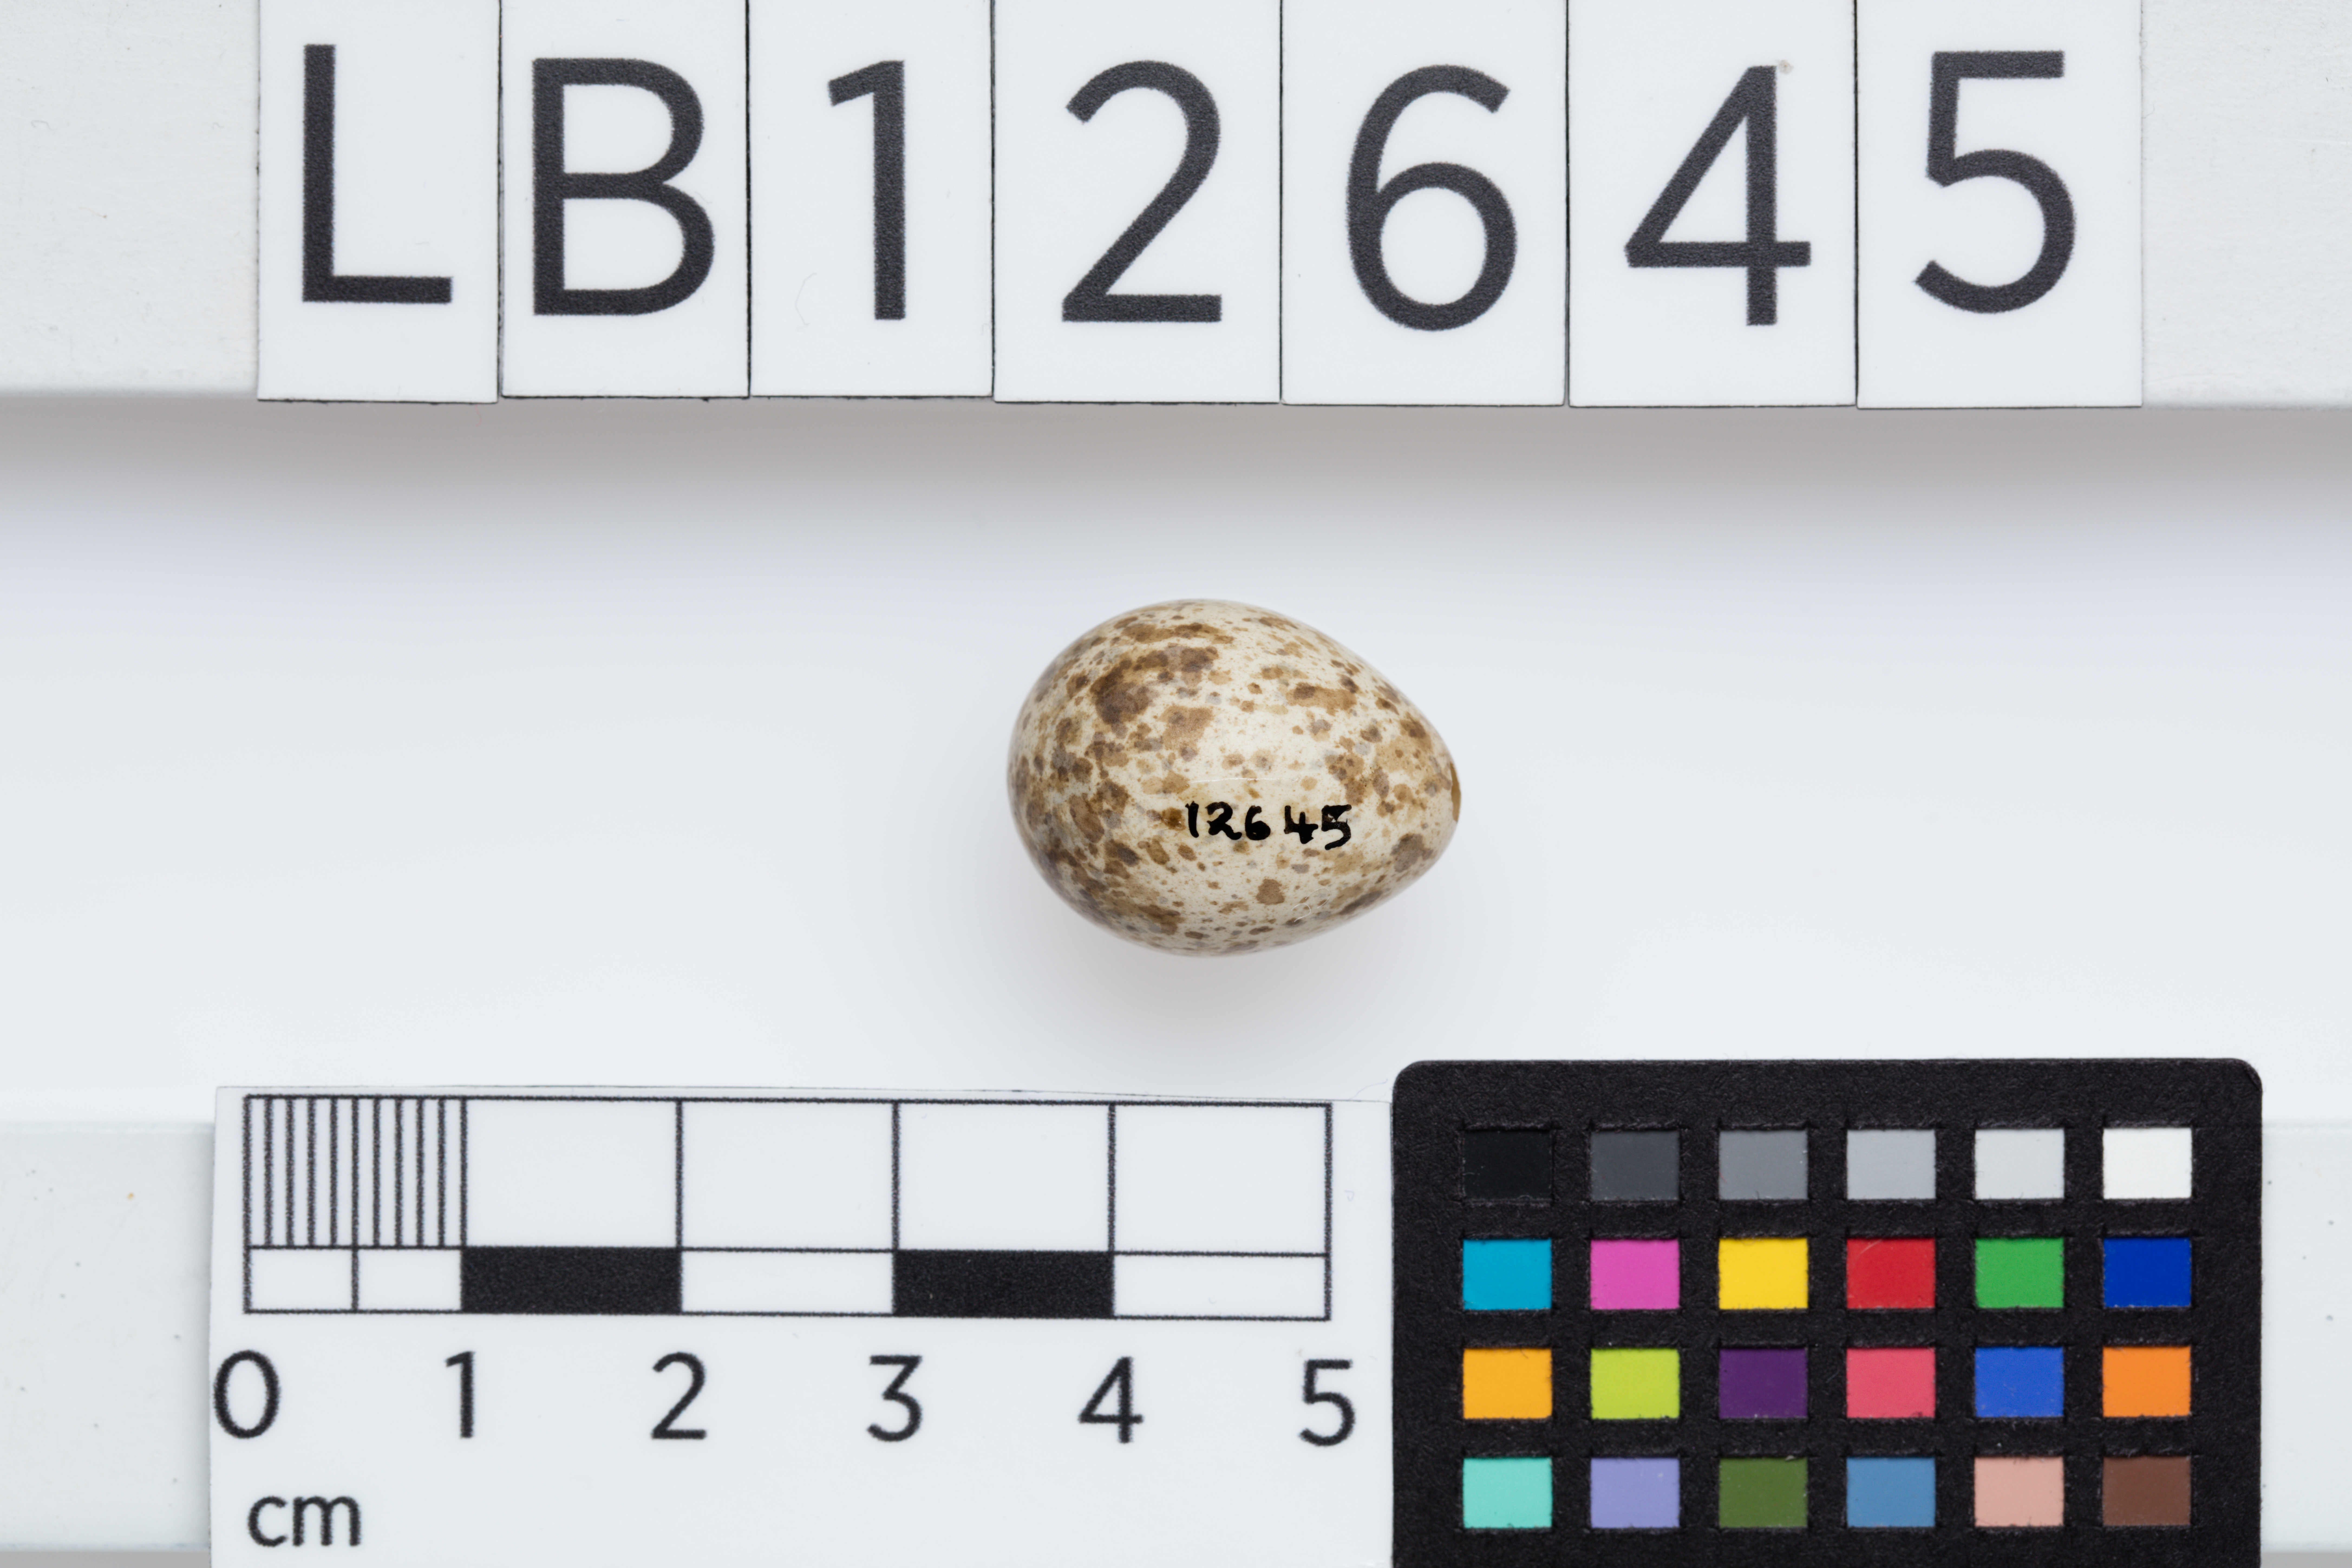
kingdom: Animalia
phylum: Chordata
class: Aves
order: Passeriformes
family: Petroicidae
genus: Eopsaltria
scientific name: Eopsaltria australis
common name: Eastern yellow robin
